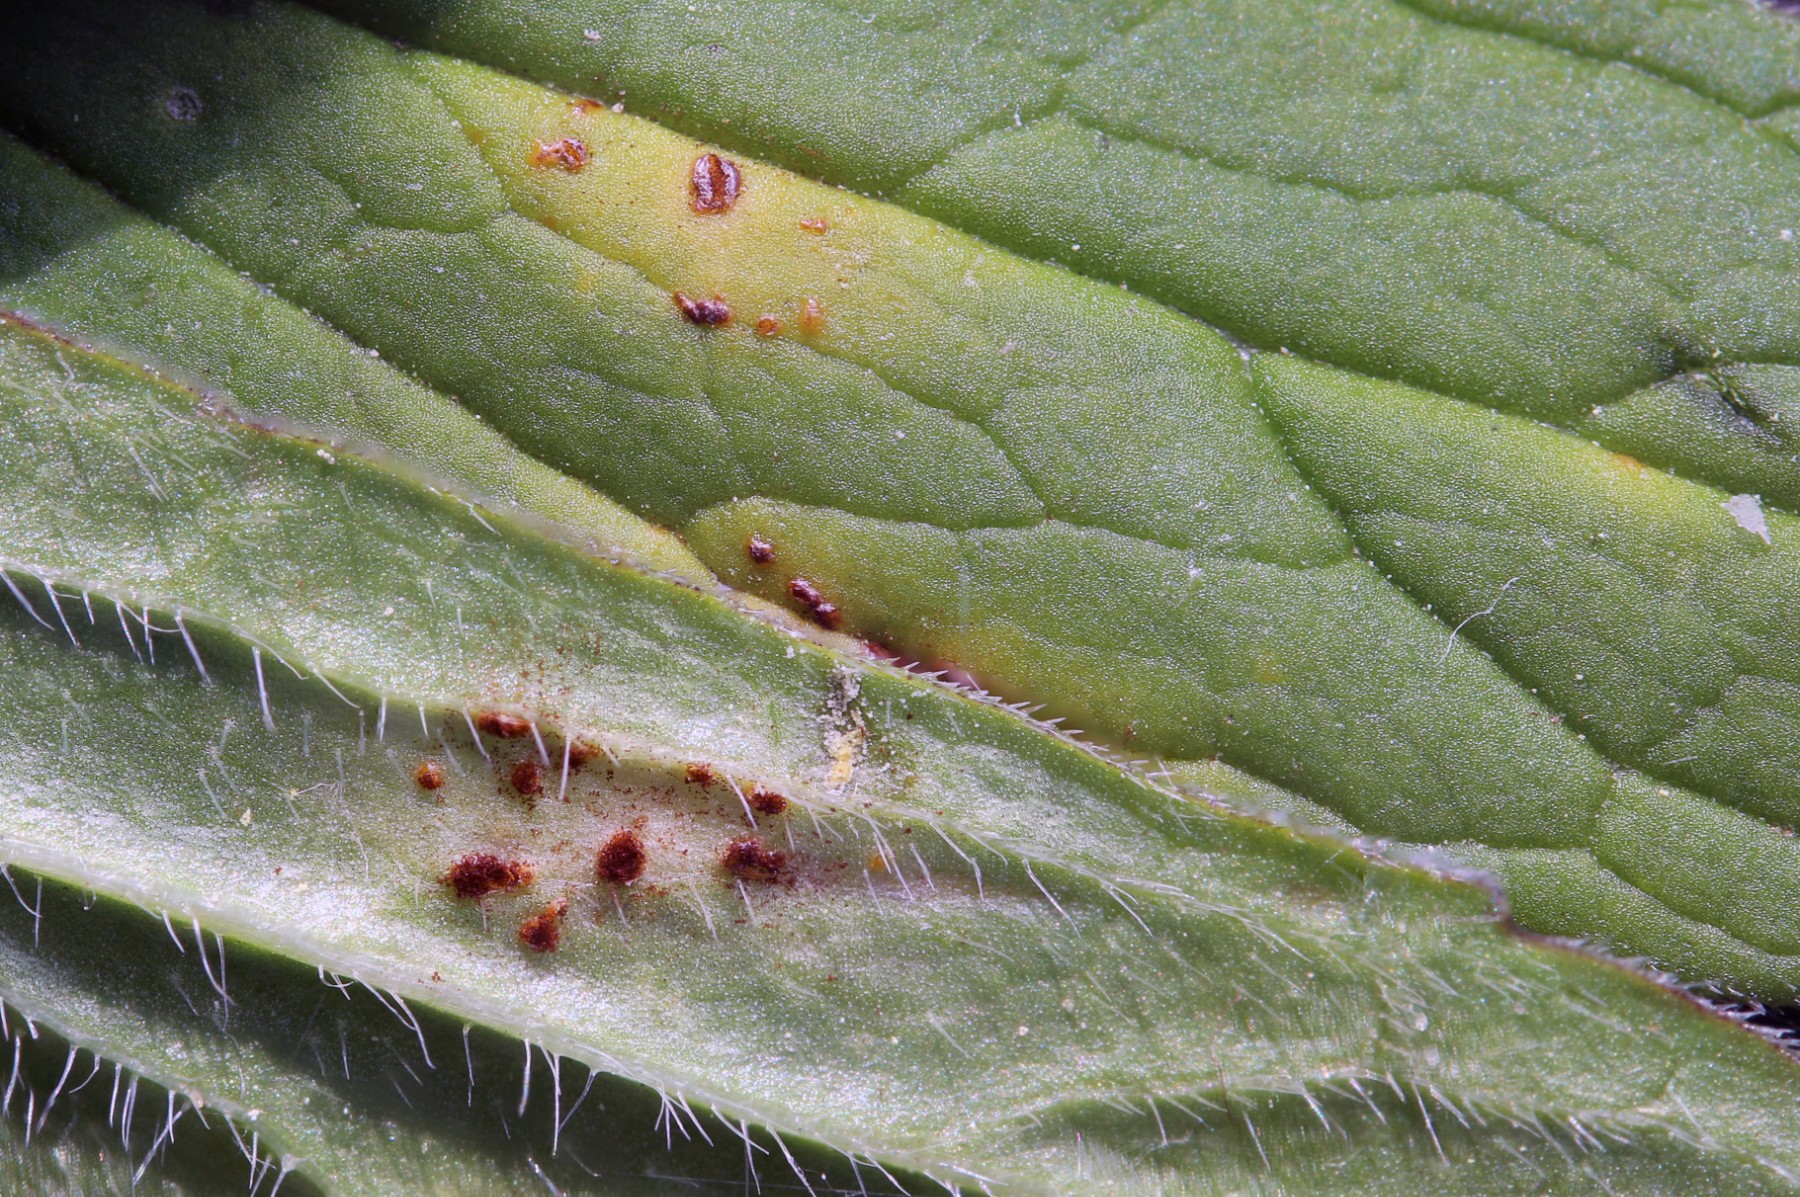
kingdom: Fungi
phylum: Basidiomycota
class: Pucciniomycetes
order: Pucciniales
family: Pucciniaceae
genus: Uromyces
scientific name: Uromyces valerianae
